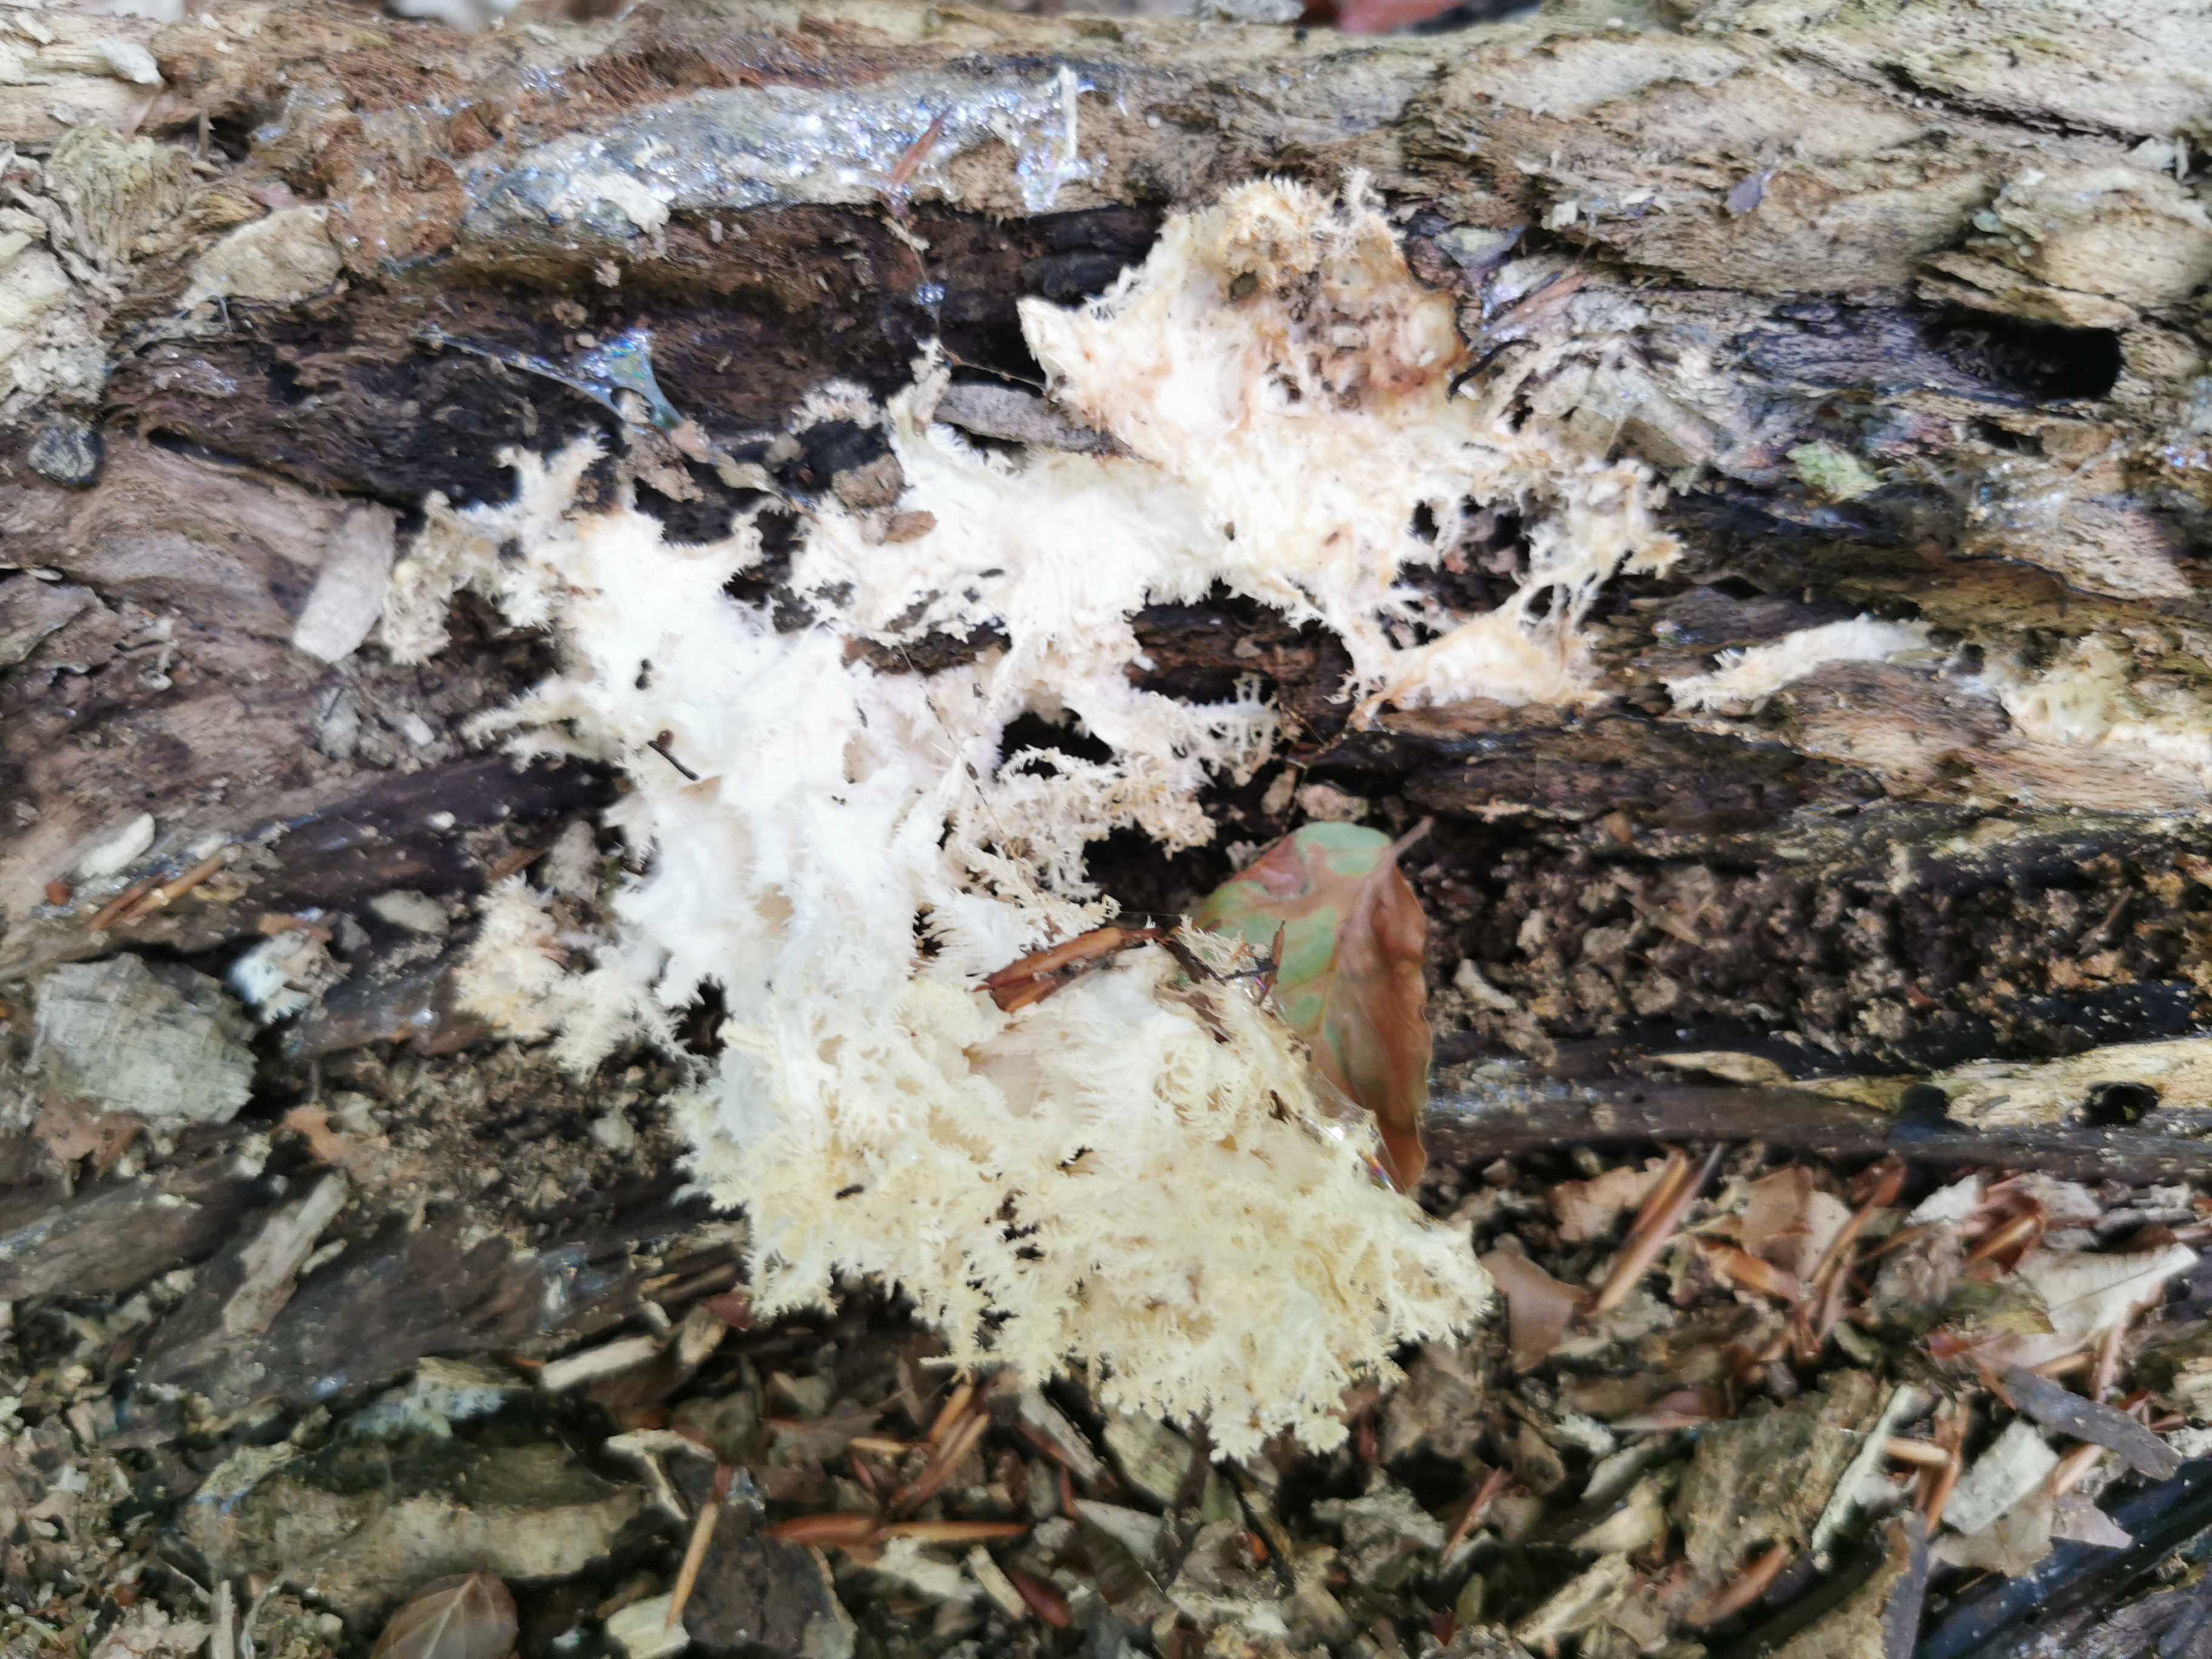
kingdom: Fungi
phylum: Basidiomycota
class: Agaricomycetes
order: Russulales
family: Hericiaceae
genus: Hericium
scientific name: Hericium coralloides
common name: koralpigsvamp
